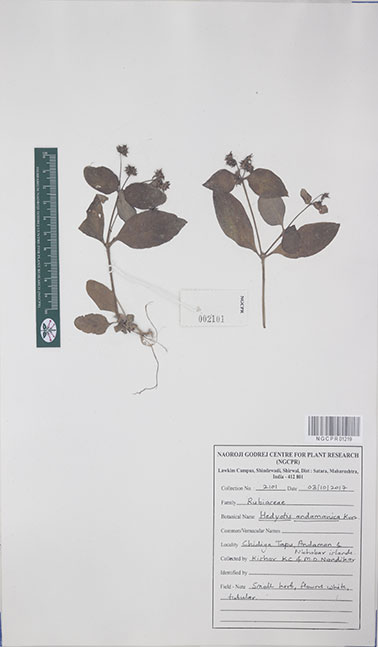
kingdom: Plantae
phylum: Tracheophyta
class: Magnoliopsida
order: Gentianales
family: Rubiaceae
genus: Debia
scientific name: Debia andamanica
